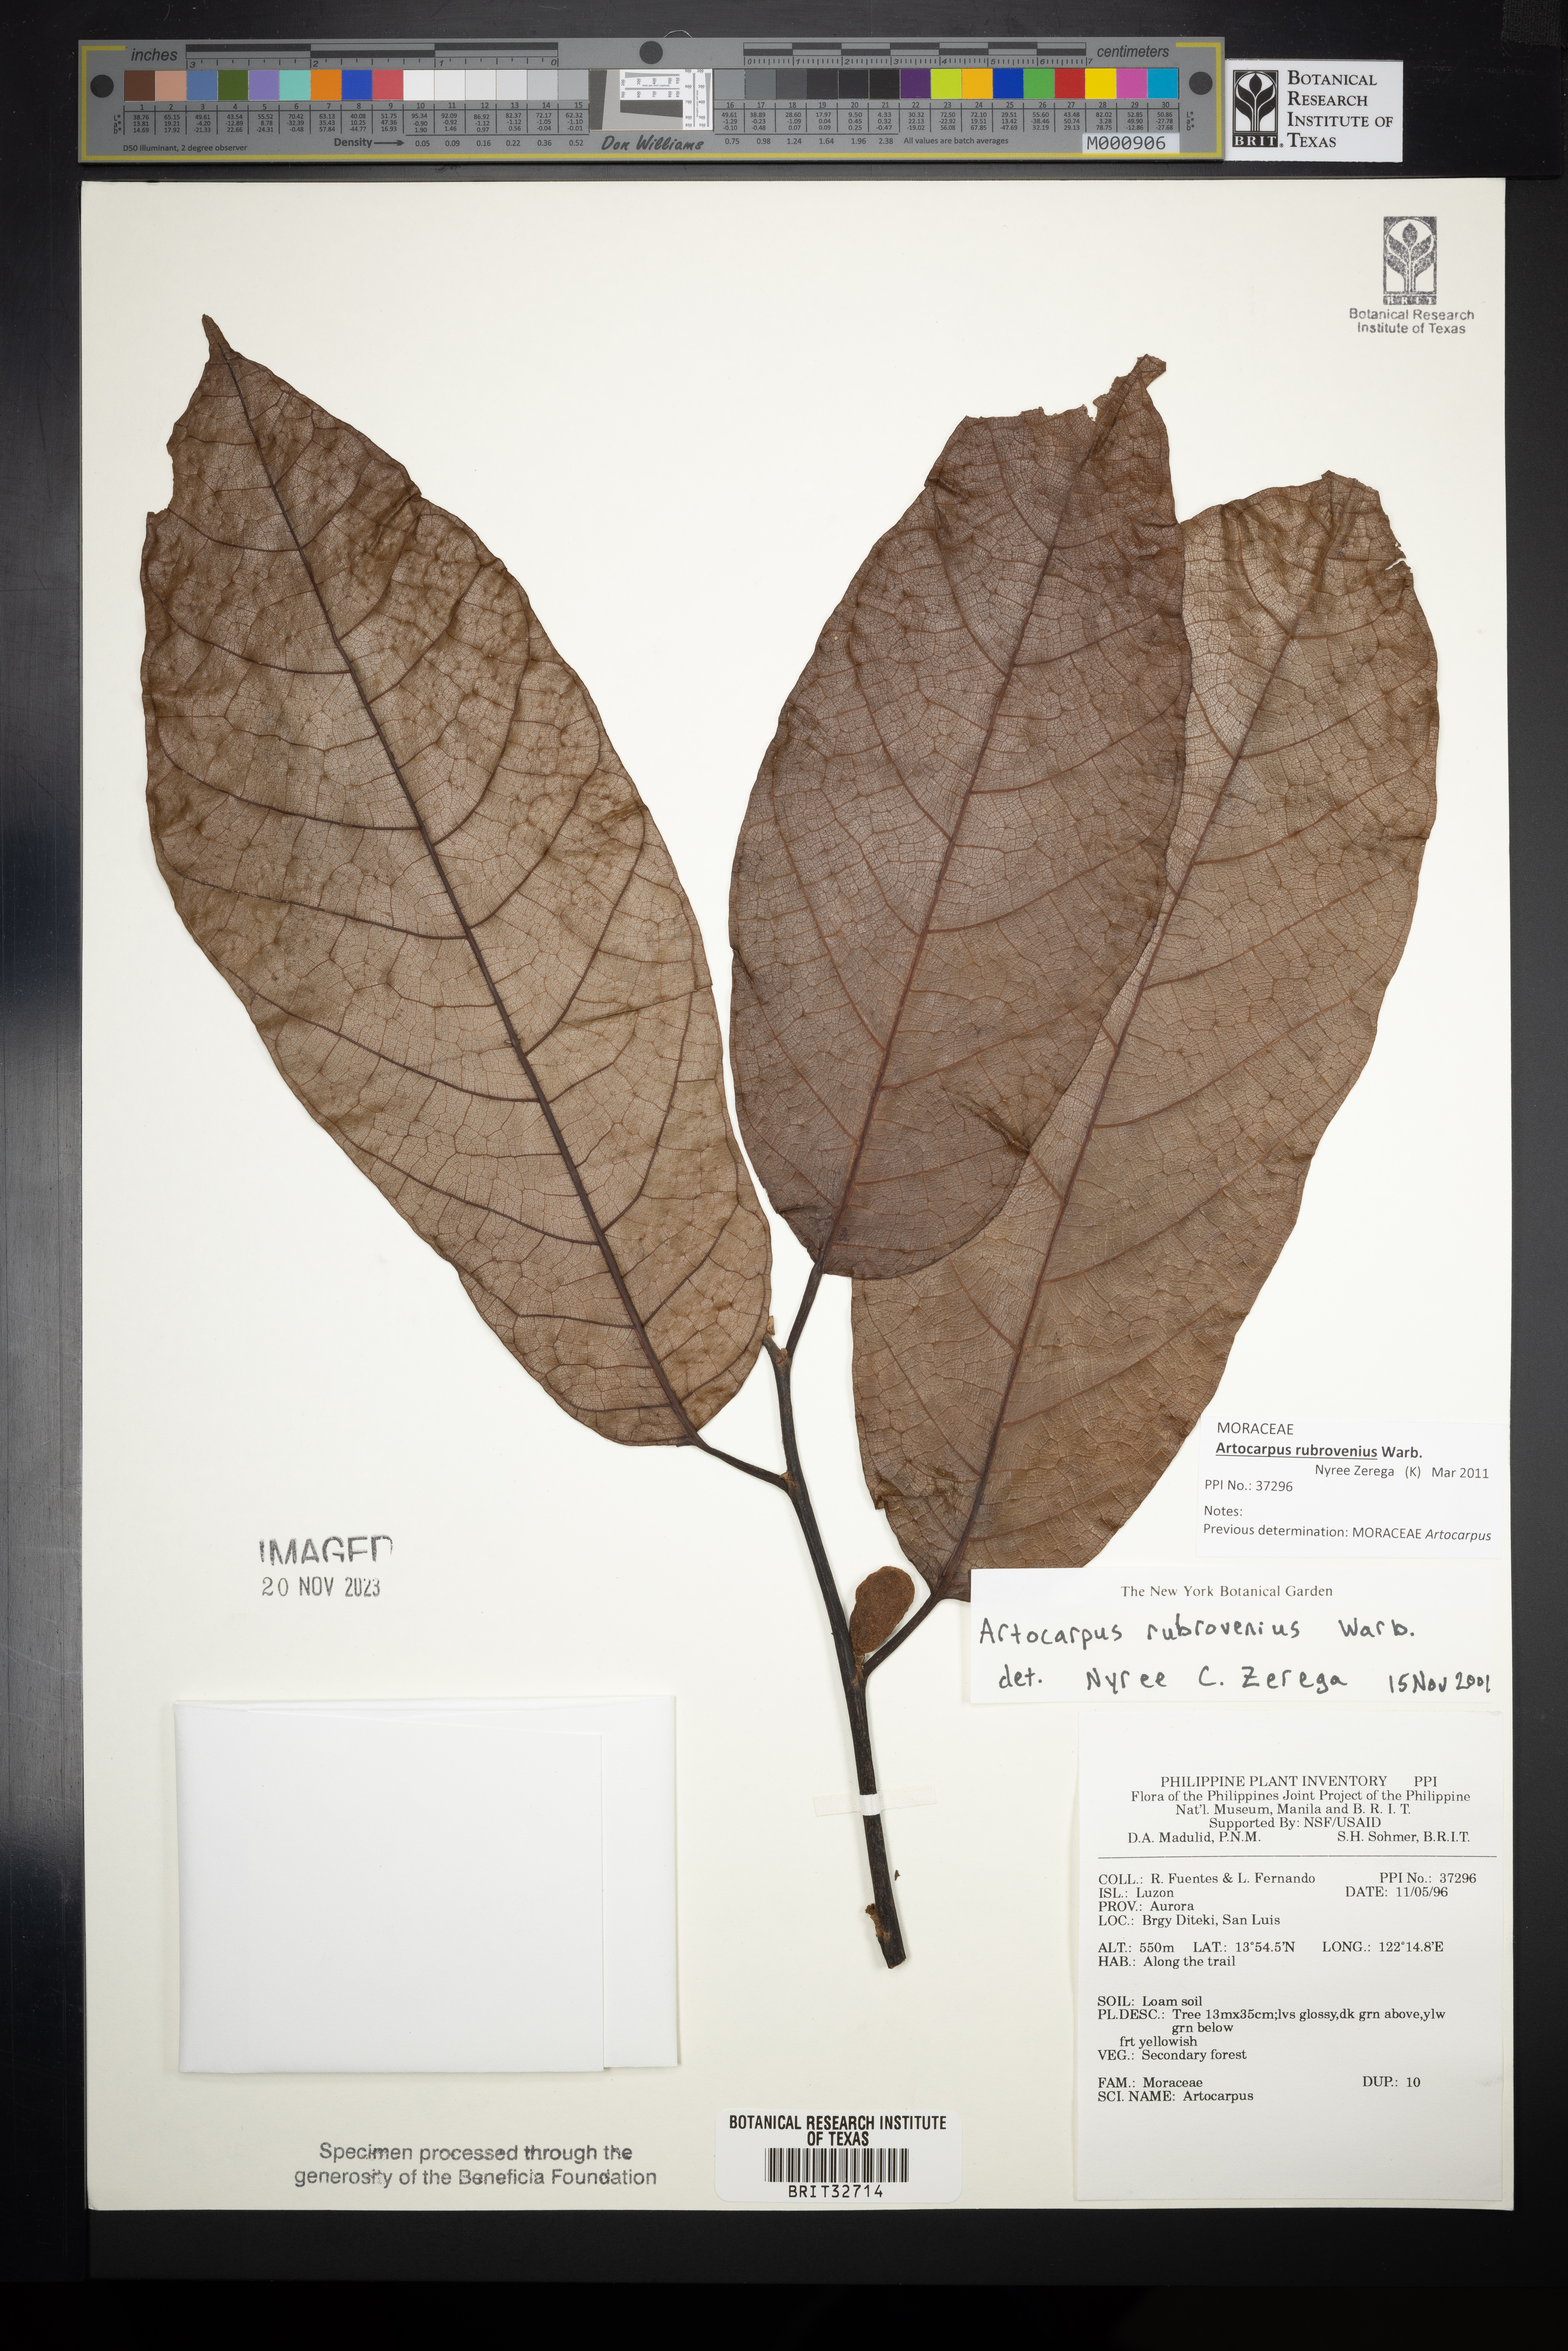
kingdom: Plantae
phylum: Tracheophyta
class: Magnoliopsida
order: Rosales
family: Moraceae
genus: Artocarpus
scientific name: Artocarpus rubrovenius
